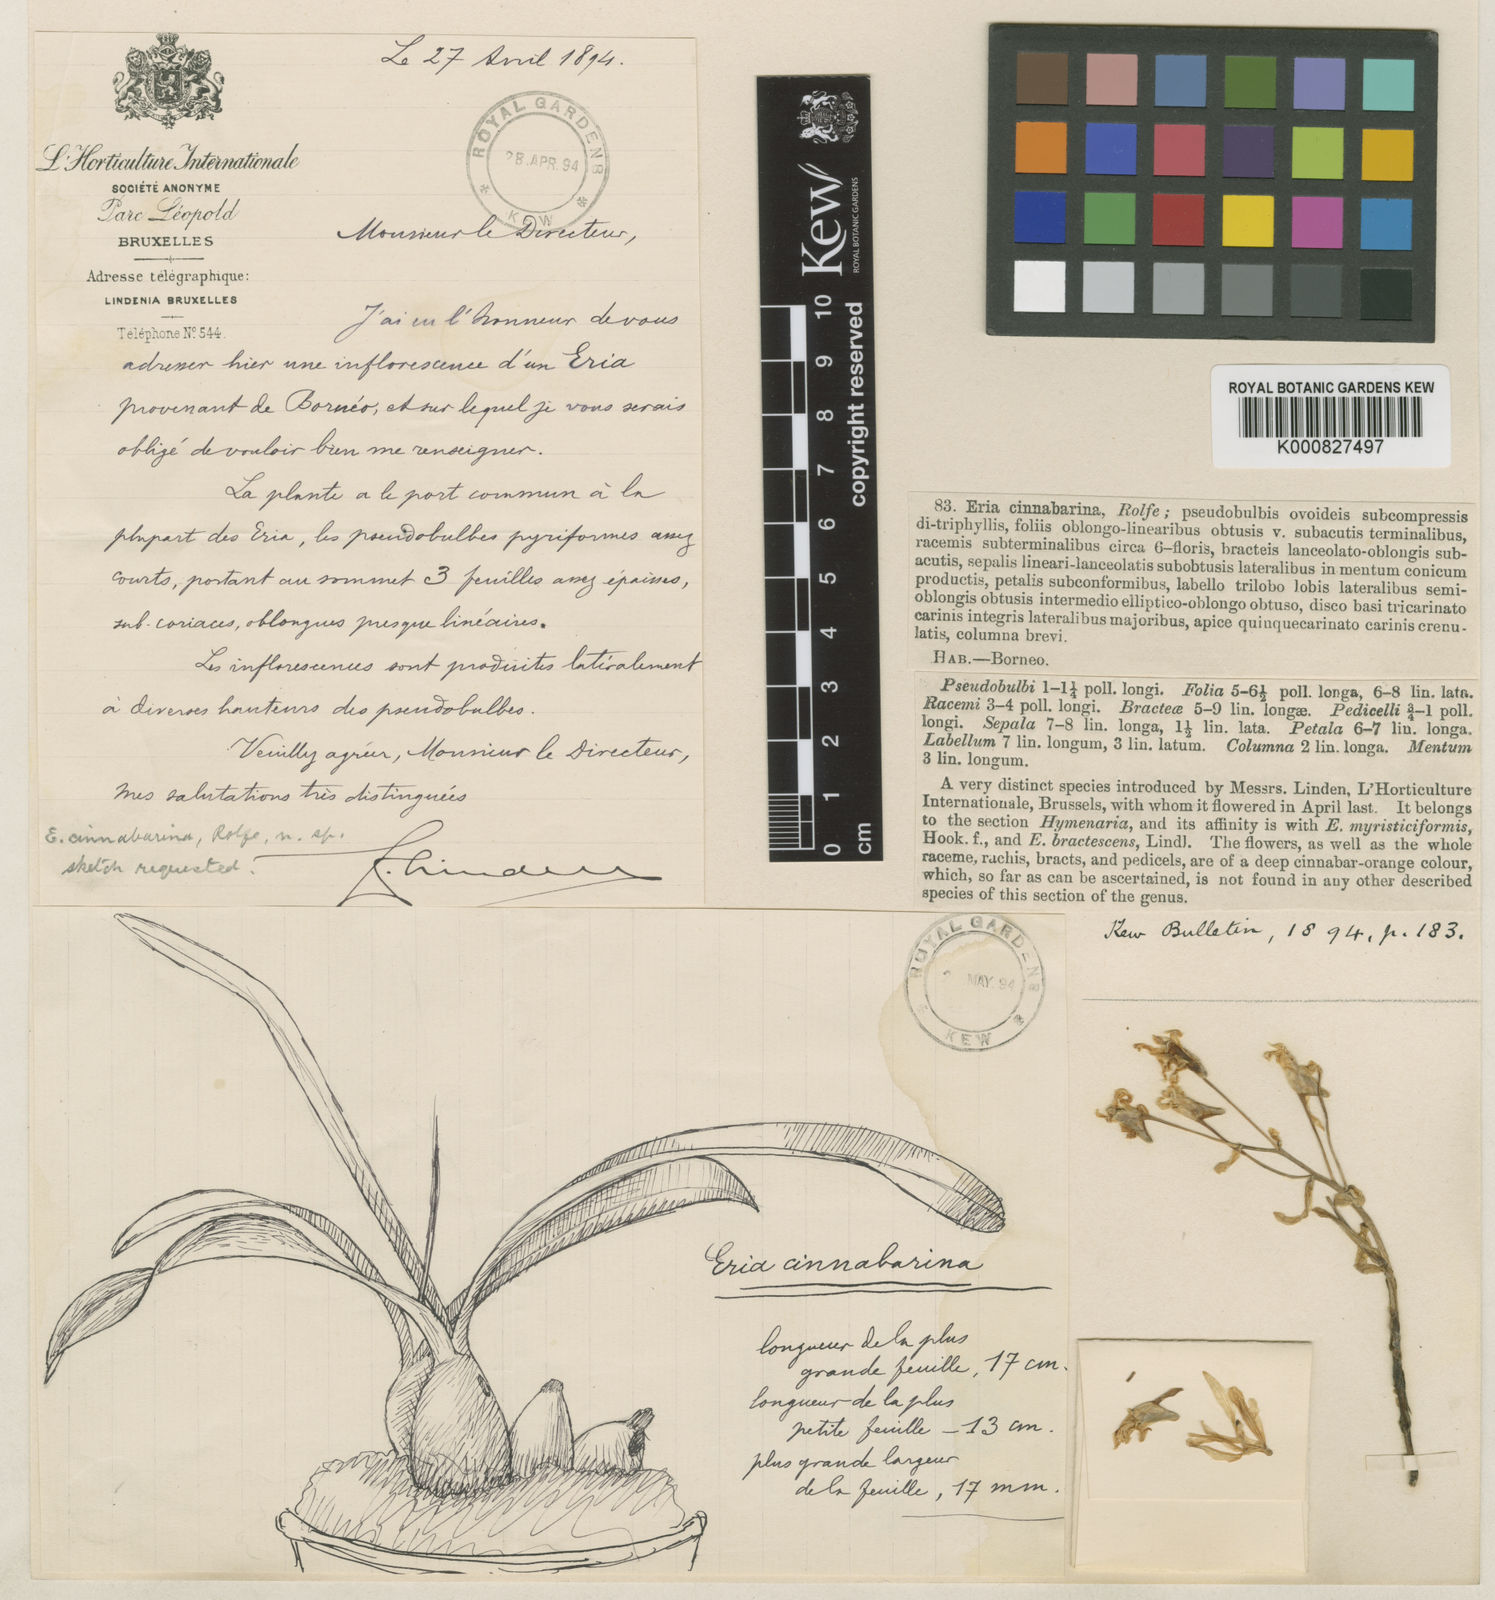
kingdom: Plantae
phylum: Tracheophyta
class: Liliopsida
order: Asparagales
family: Orchidaceae
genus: Pinalia
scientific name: Pinalia ignea
